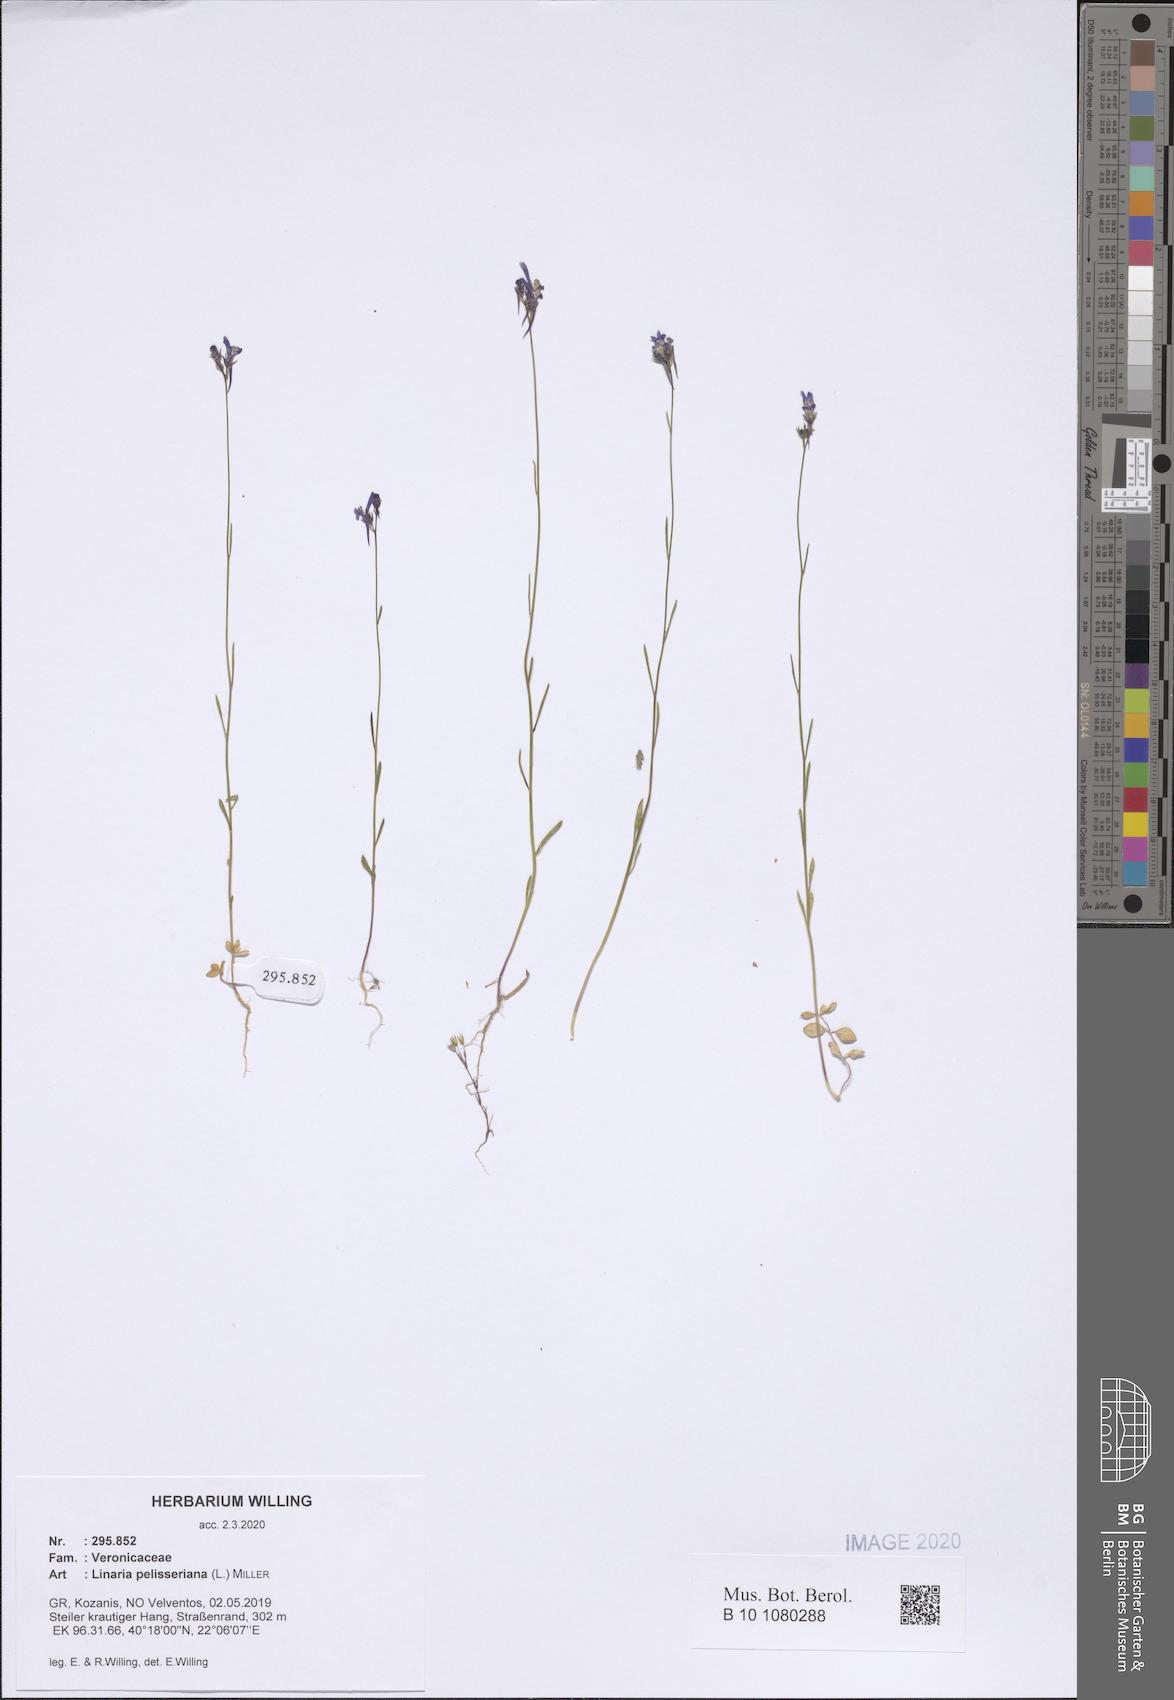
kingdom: Plantae
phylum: Tracheophyta
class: Magnoliopsida
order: Lamiales
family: Plantaginaceae
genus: Linaria
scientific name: Linaria pelisseriana
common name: Jersey toadflax
